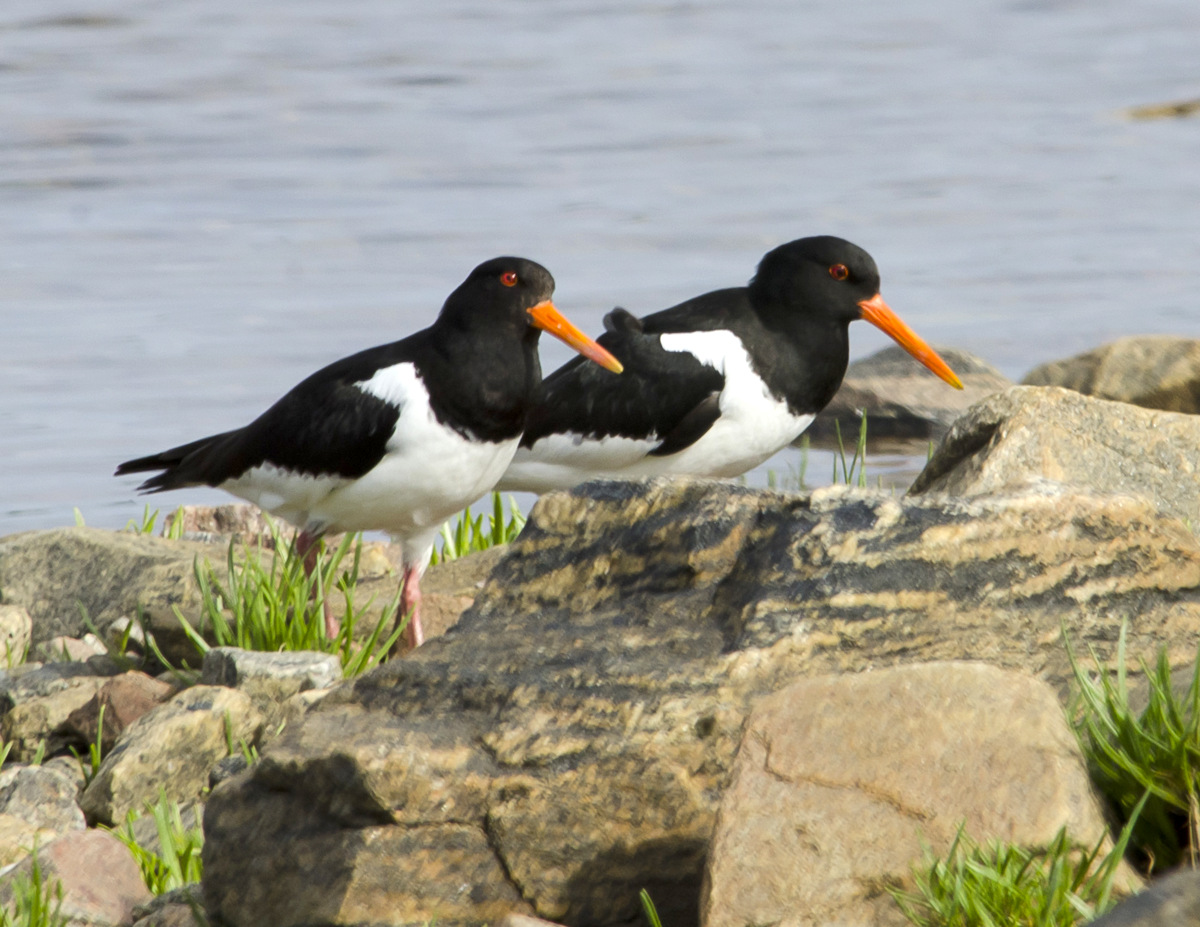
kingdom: Animalia
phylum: Chordata
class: Aves
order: Charadriiformes
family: Haematopodidae
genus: Haematopus
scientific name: Haematopus ostralegus
